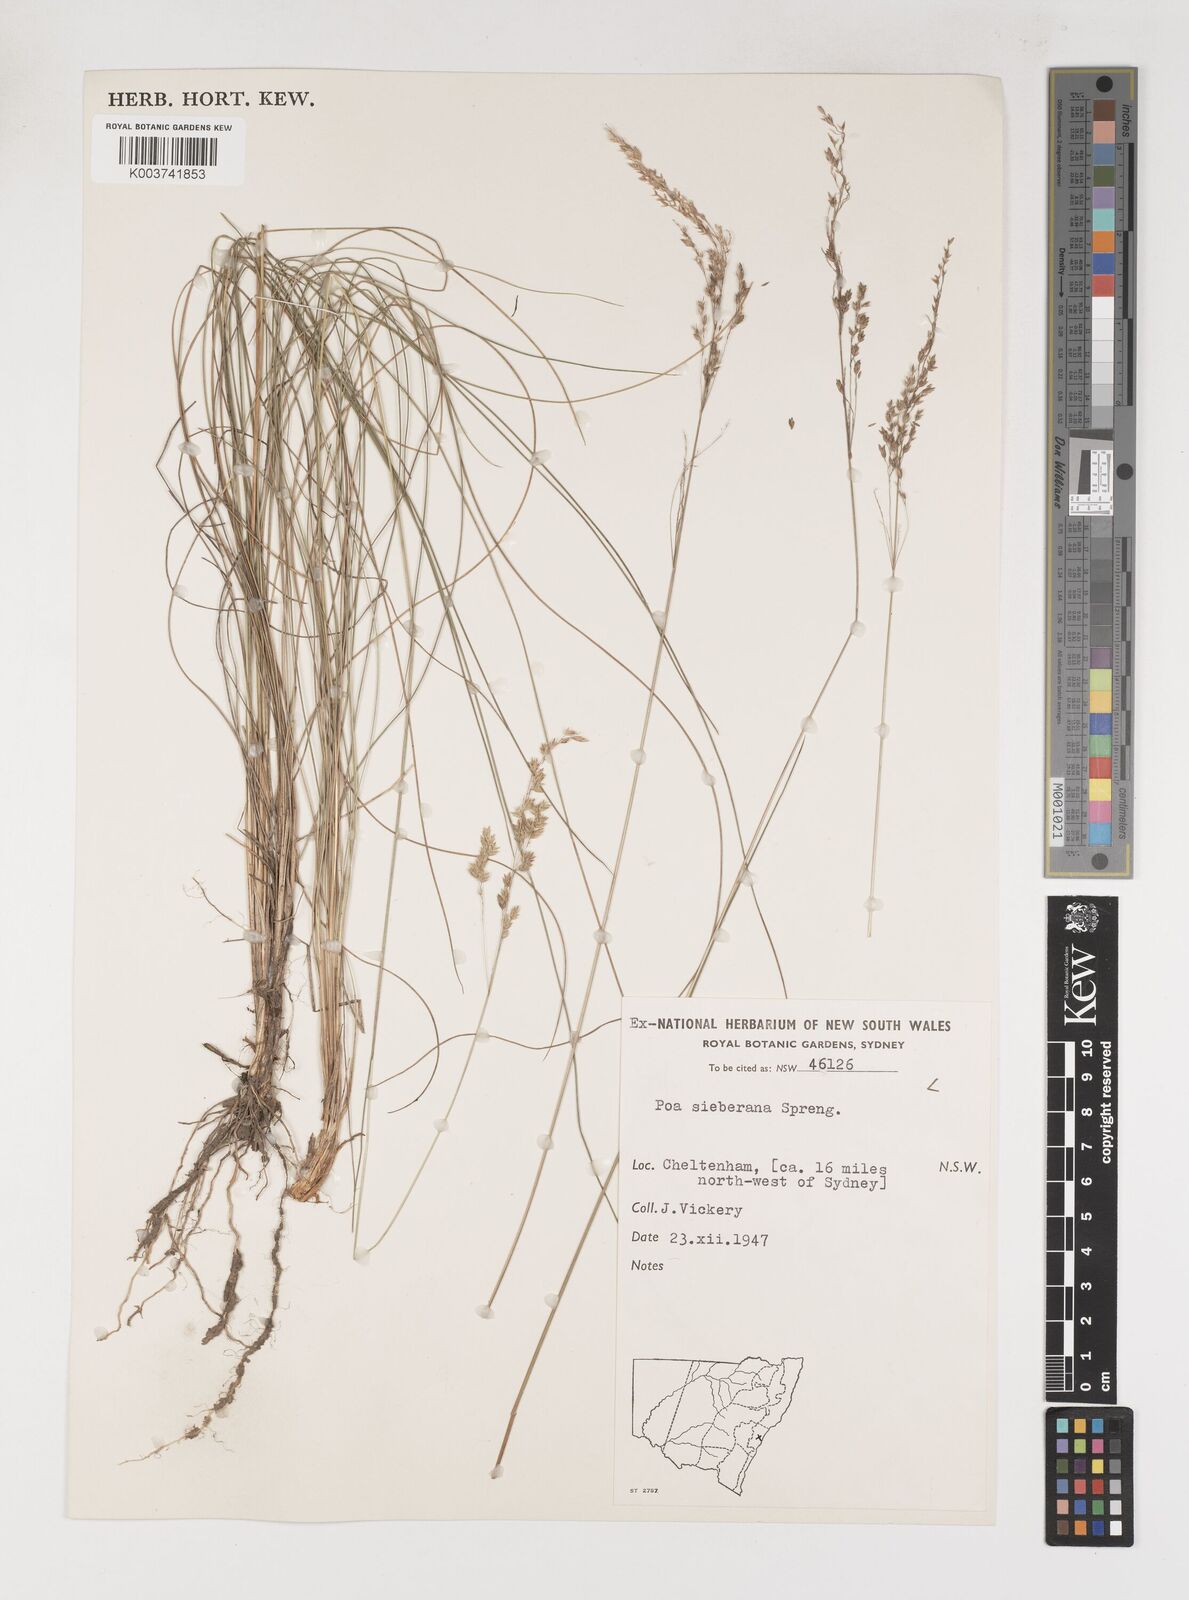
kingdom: Plantae
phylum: Tracheophyta
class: Liliopsida
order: Poales
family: Poaceae
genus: Poa
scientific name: Poa sieberiana
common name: Tussock poa
